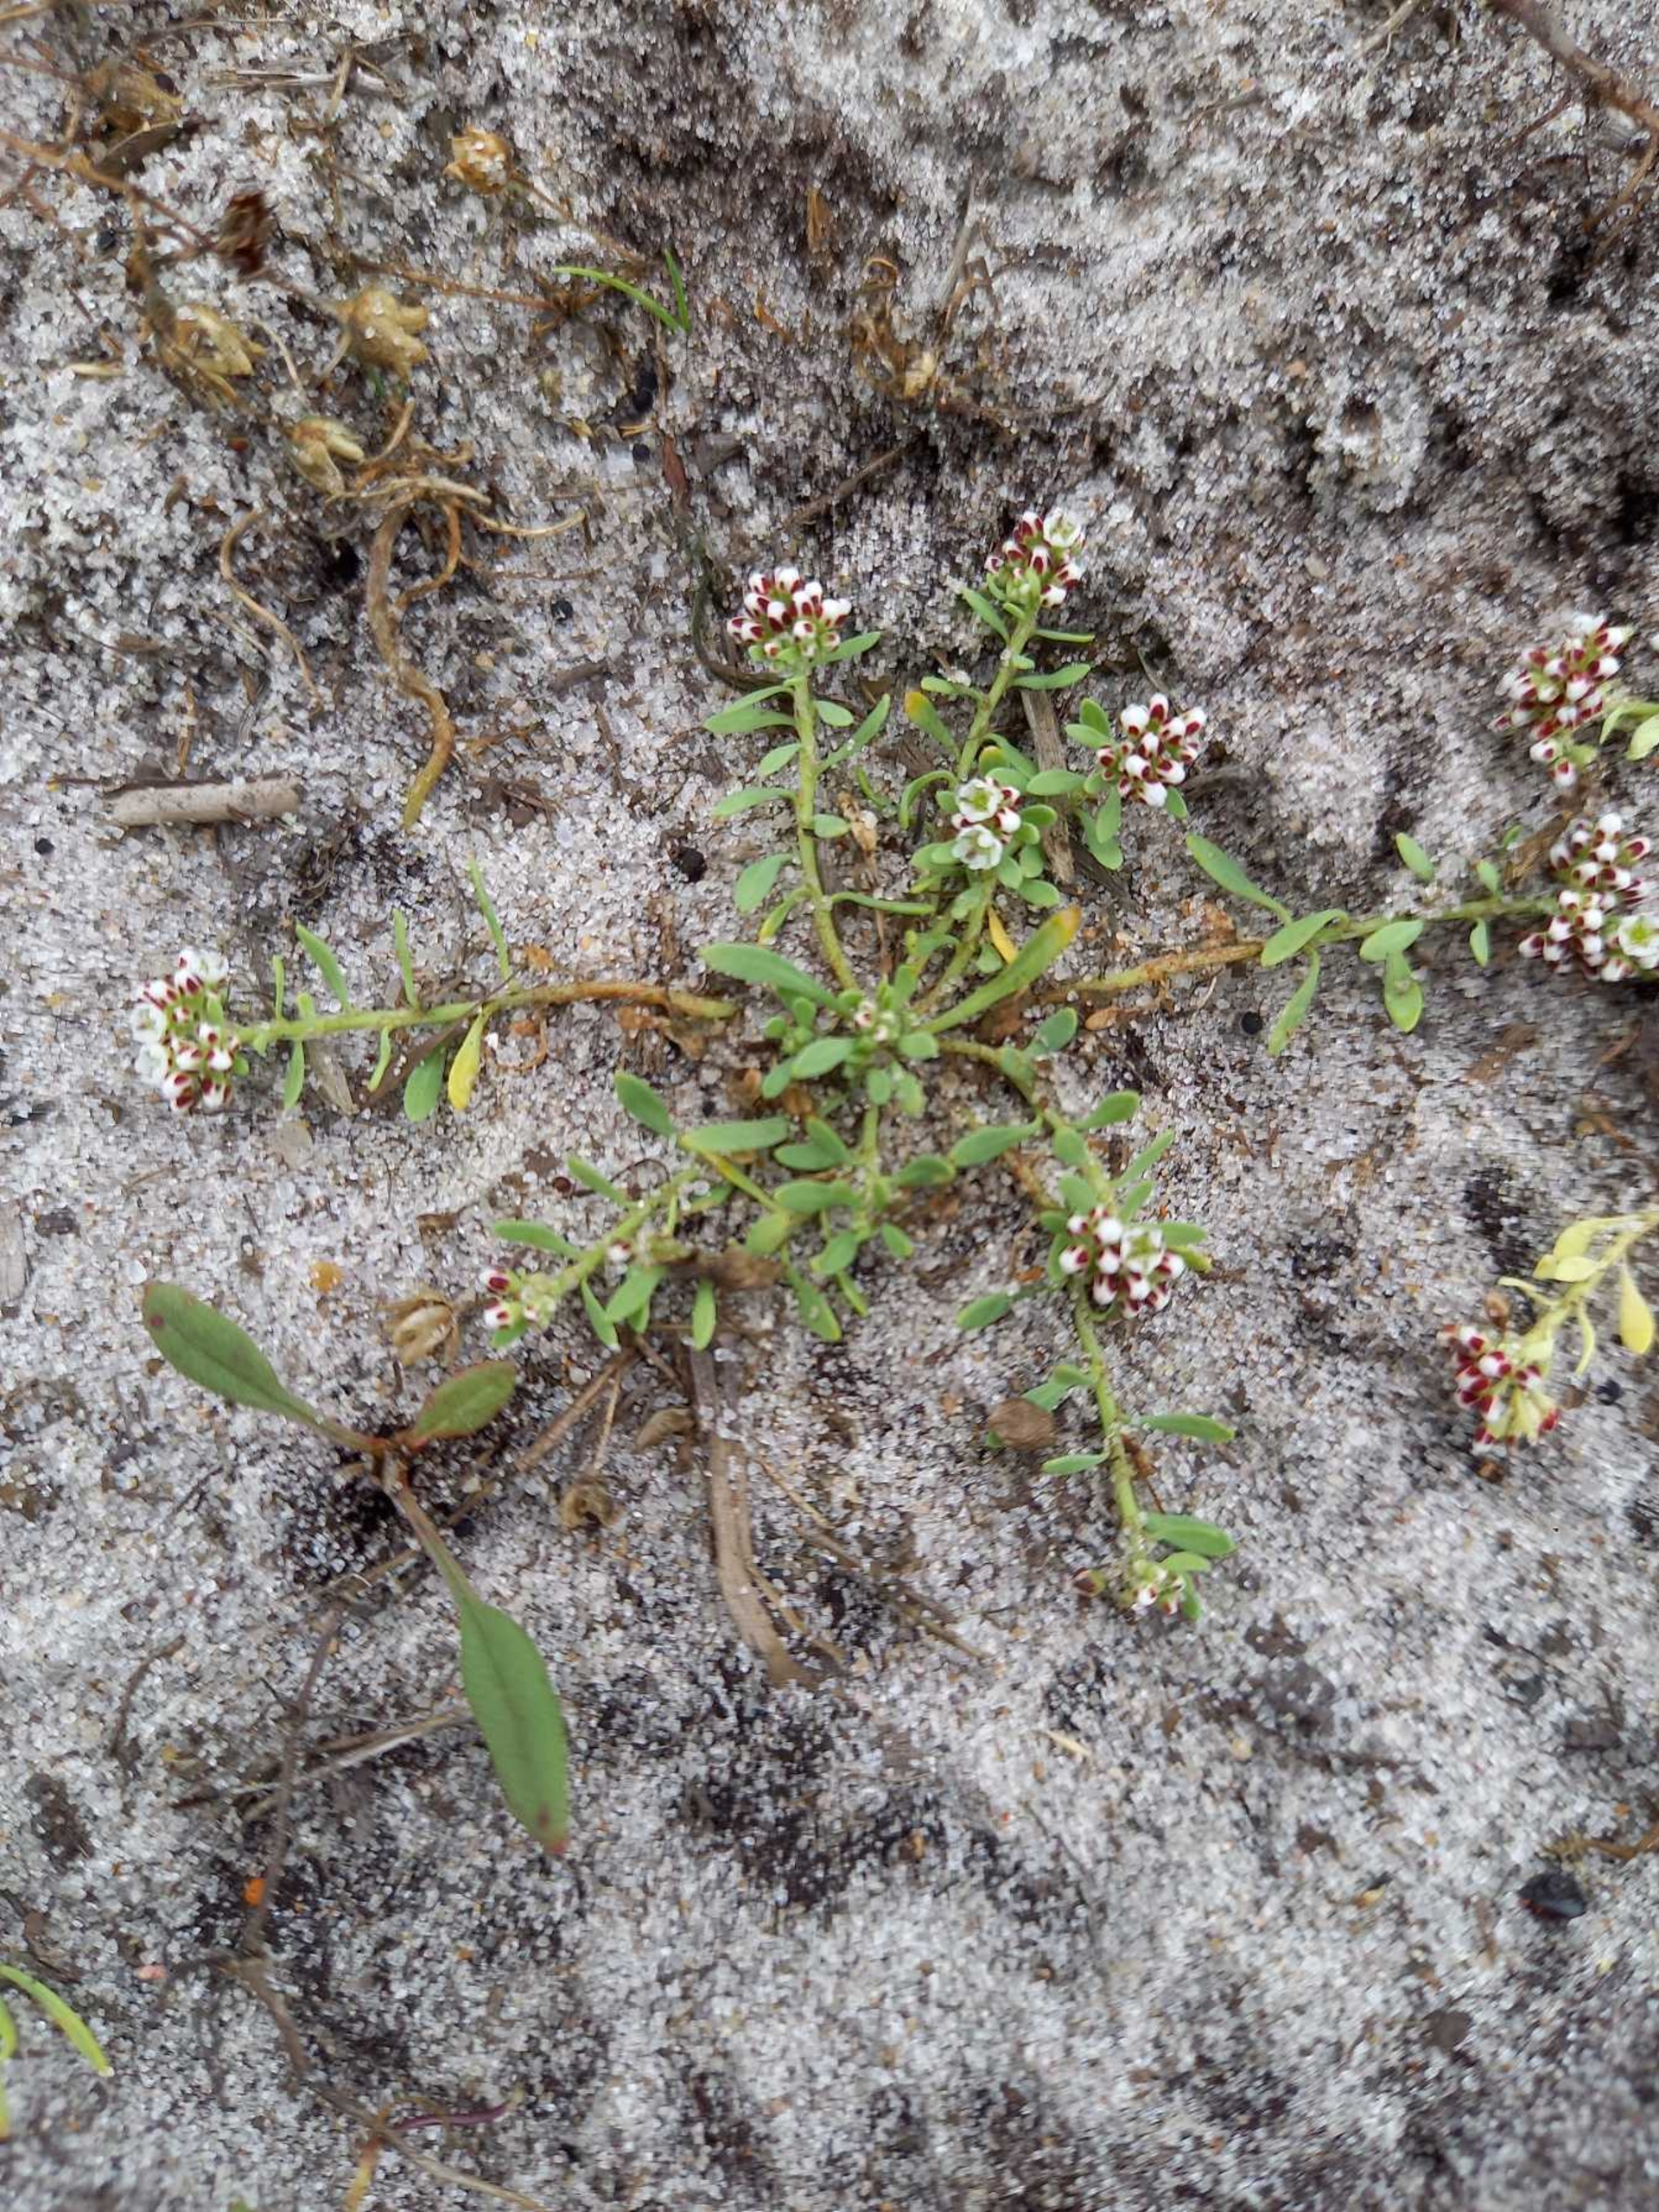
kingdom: Plantae
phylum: Tracheophyta
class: Magnoliopsida
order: Caryophyllales
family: Caryophyllaceae
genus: Corrigiola
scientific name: Corrigiola litoralis
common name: Skorem
